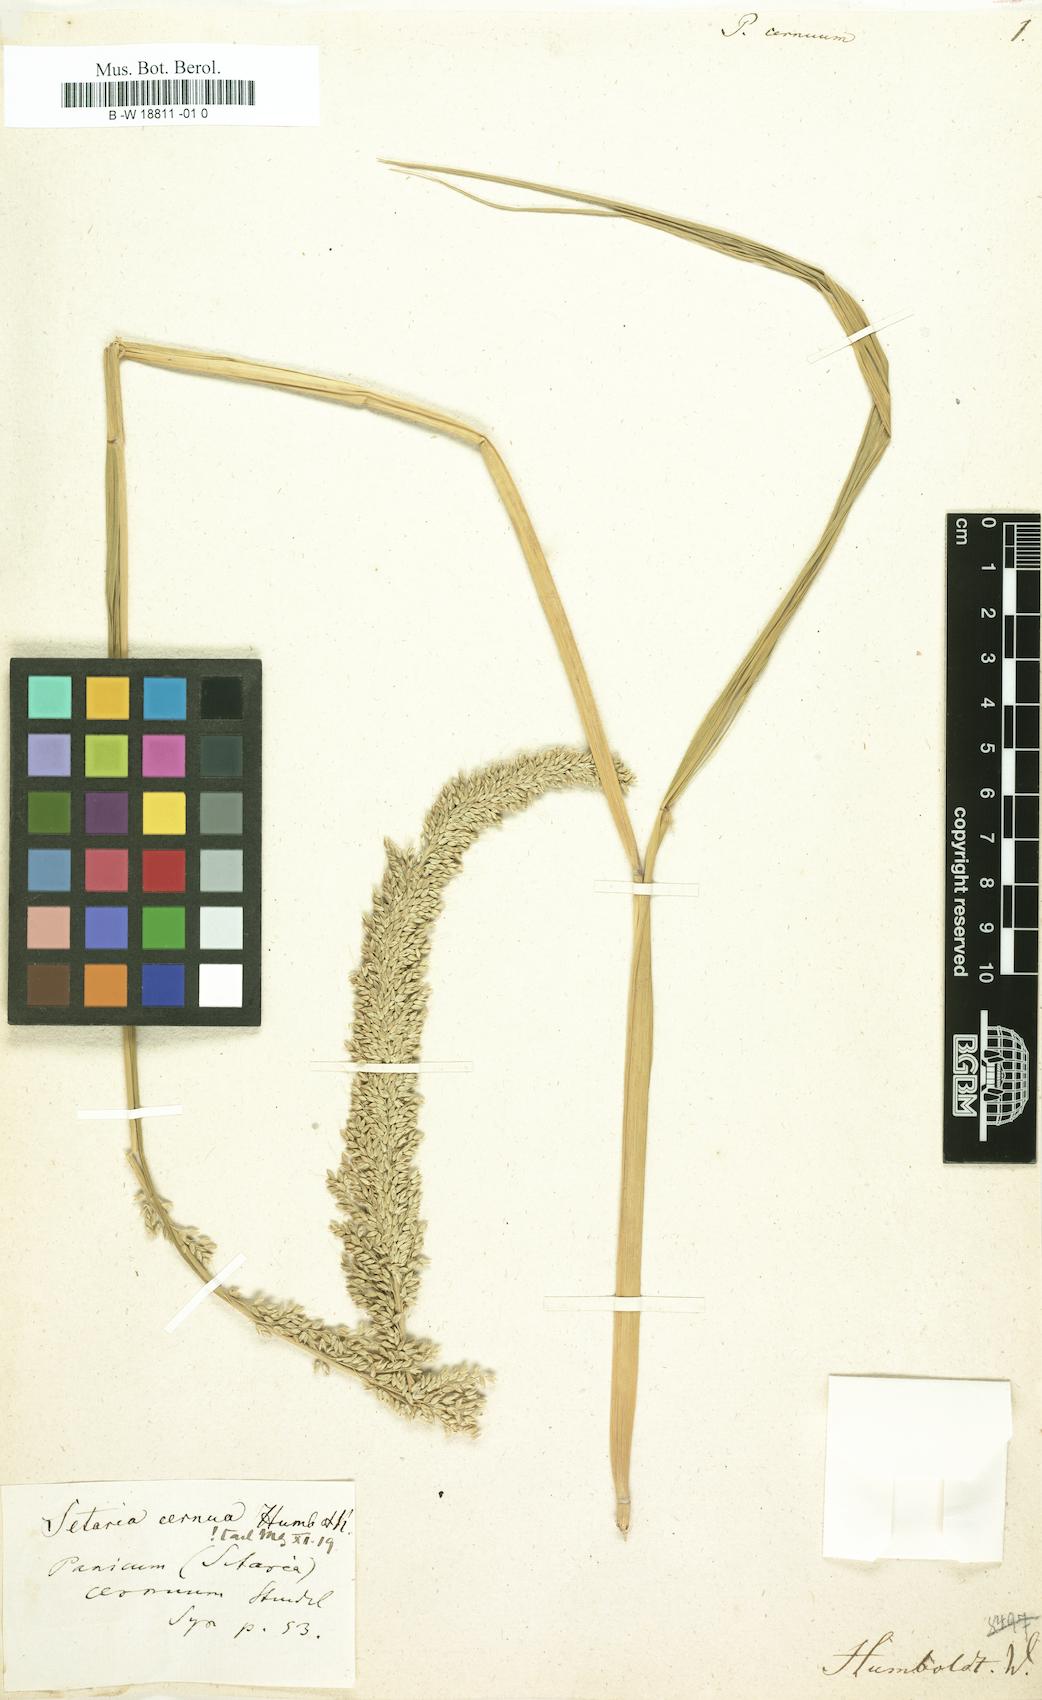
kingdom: Plantae
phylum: Tracheophyta
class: Liliopsida
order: Poales
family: Poaceae
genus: Setaria
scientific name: Setaria cernua
